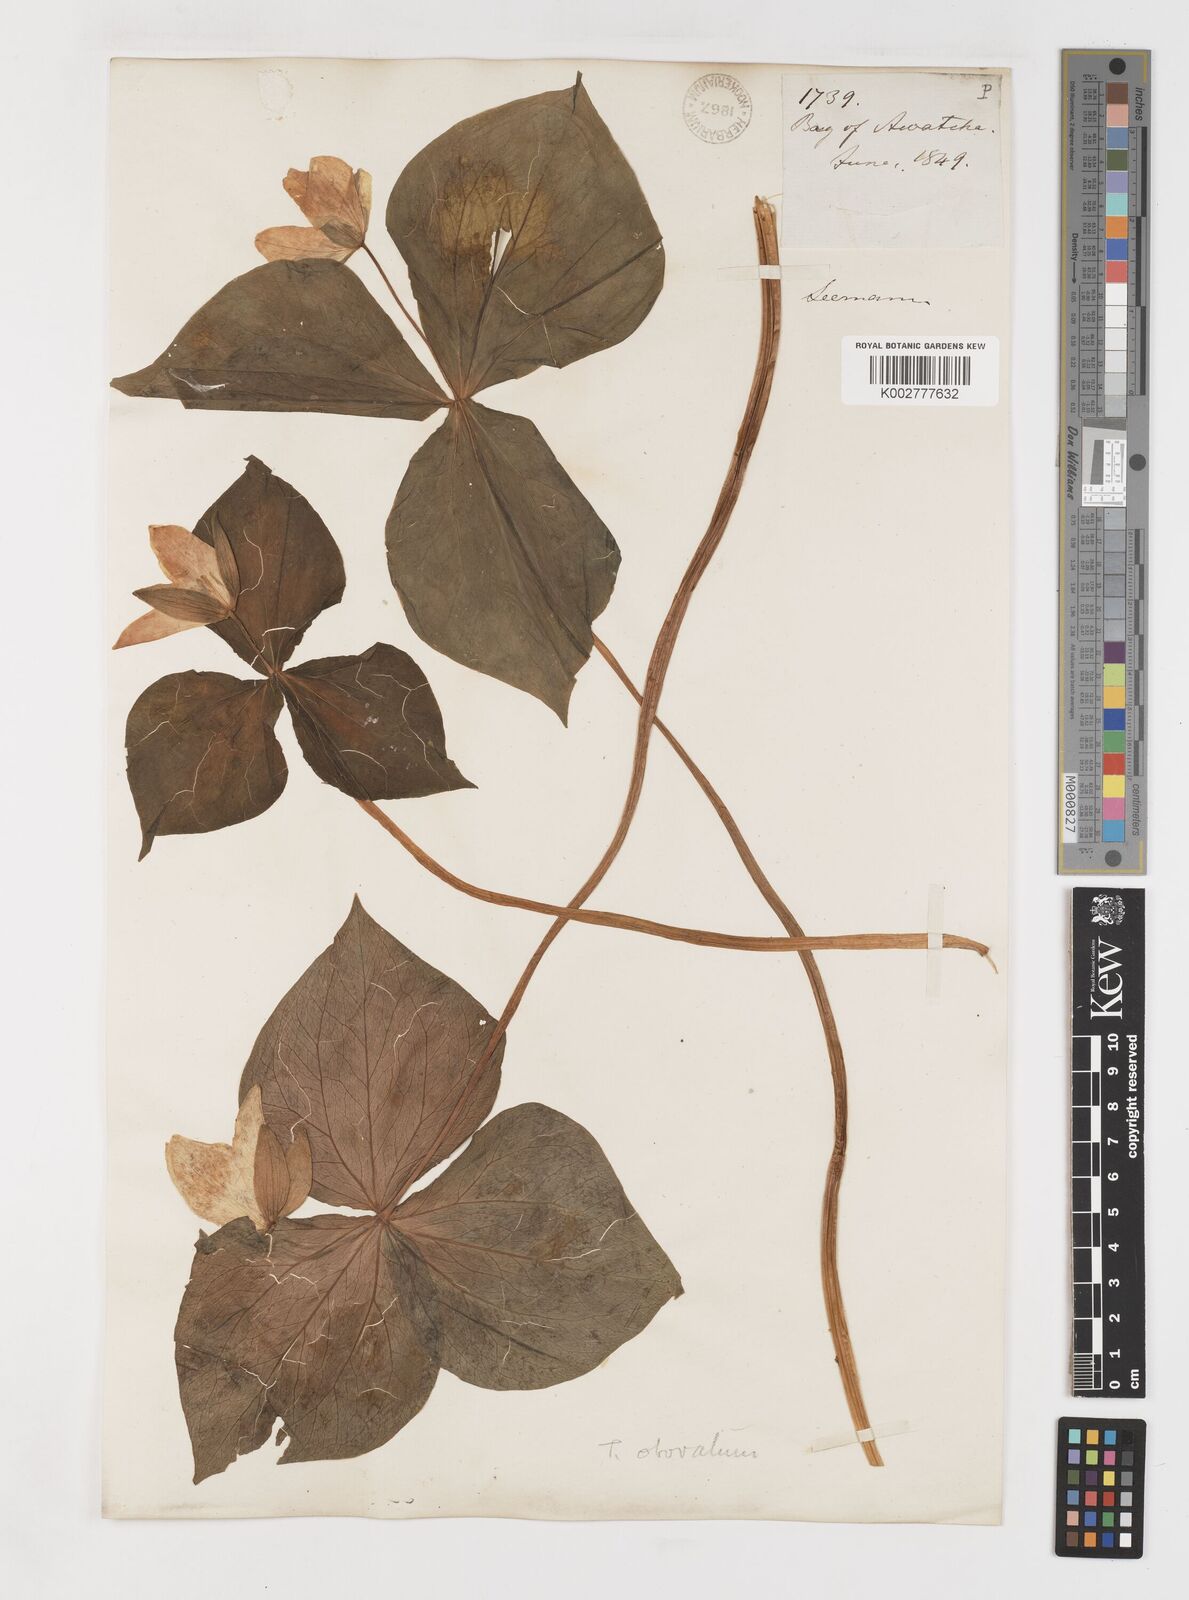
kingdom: Plantae
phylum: Tracheophyta
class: Liliopsida
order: Liliales
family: Melanthiaceae
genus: Trillium
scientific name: Trillium erectum
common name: Purple trillium
